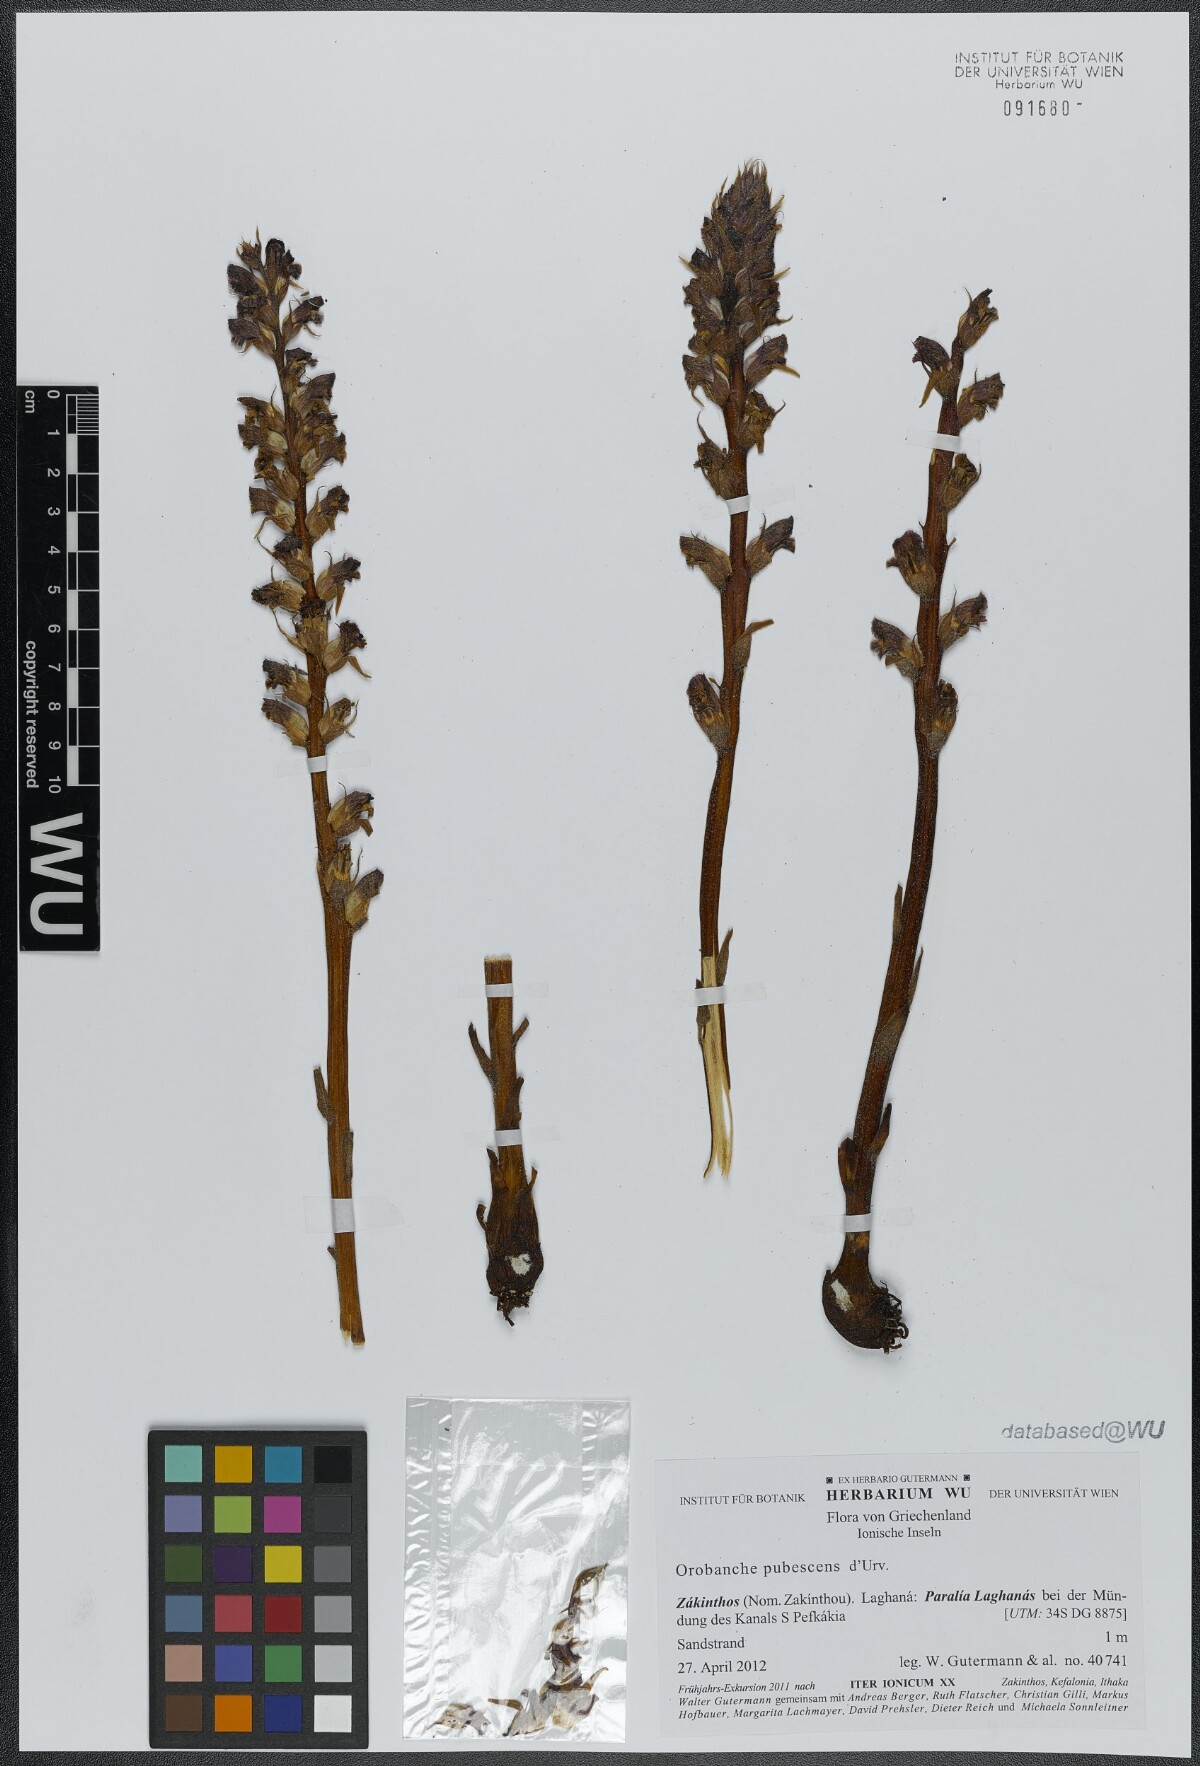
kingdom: Plantae
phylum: Tracheophyta
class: Magnoliopsida
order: Lamiales
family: Orobanchaceae
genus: Orobanche
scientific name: Orobanche pubescens
